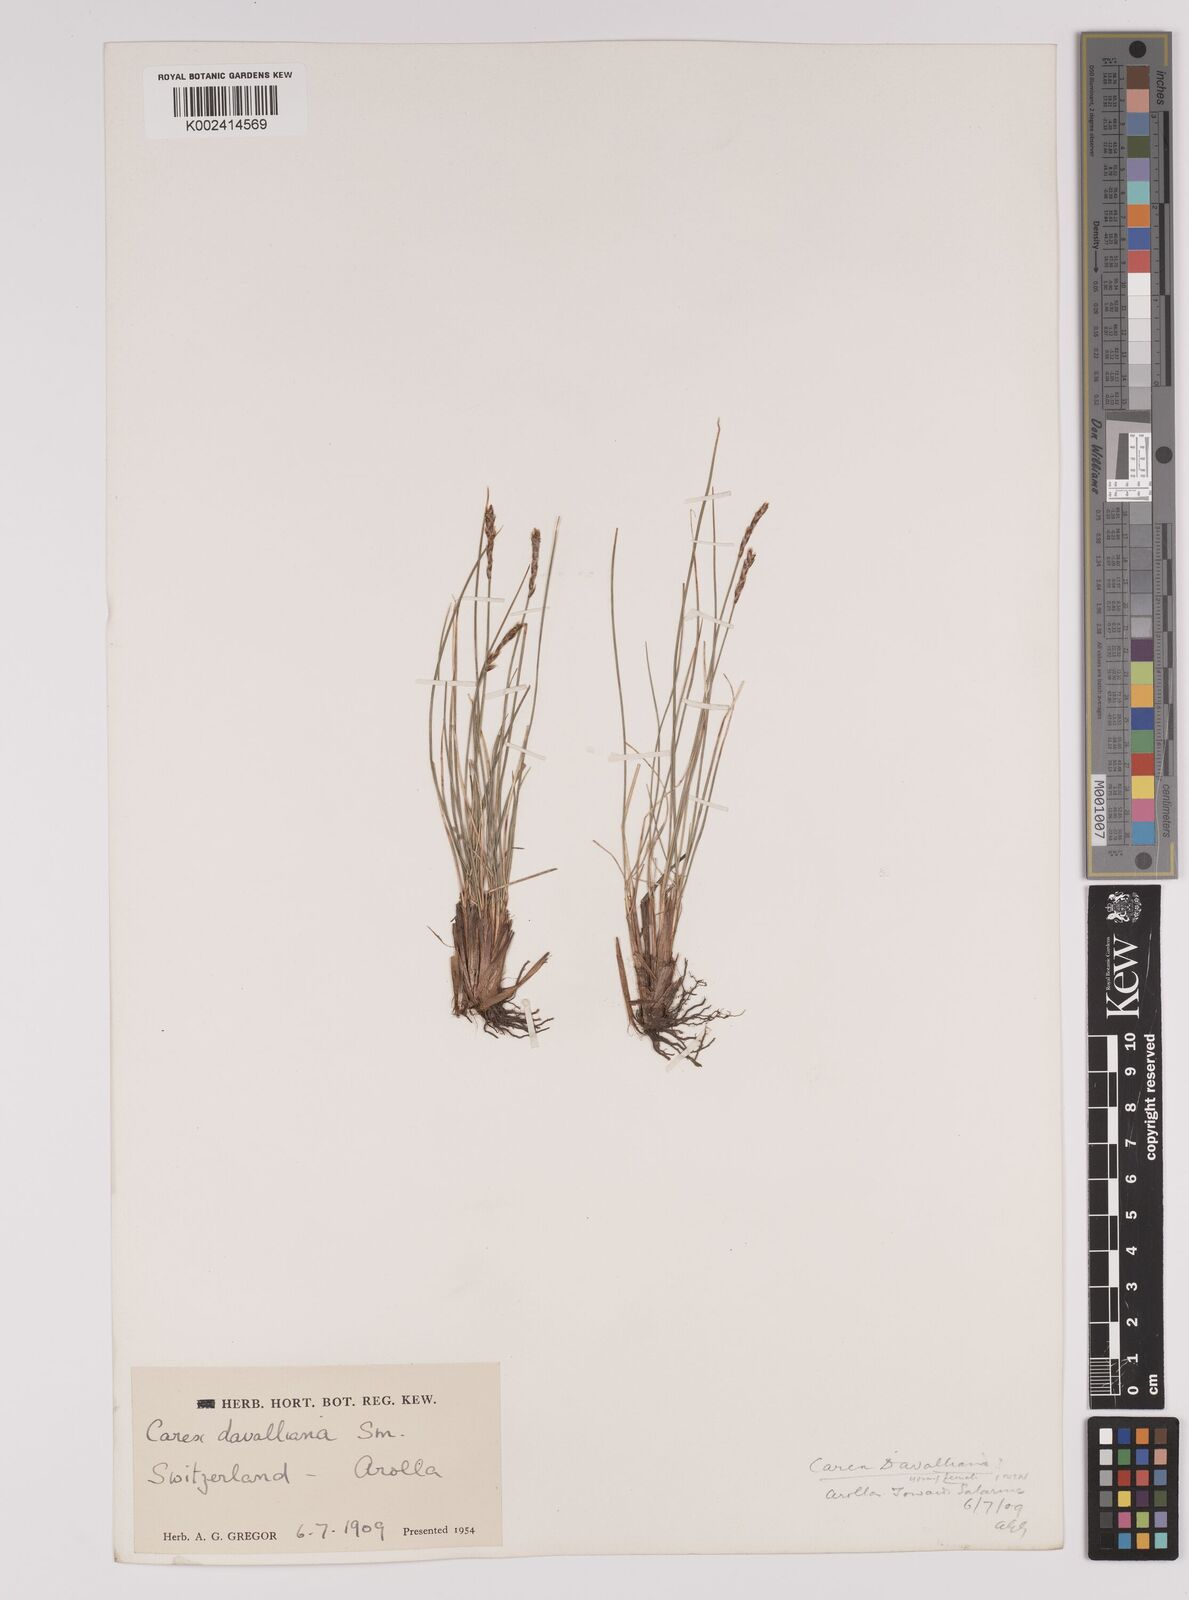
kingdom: Plantae
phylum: Tracheophyta
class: Liliopsida
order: Poales
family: Cyperaceae
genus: Carex
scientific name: Carex davalliana
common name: Davall's sedge
